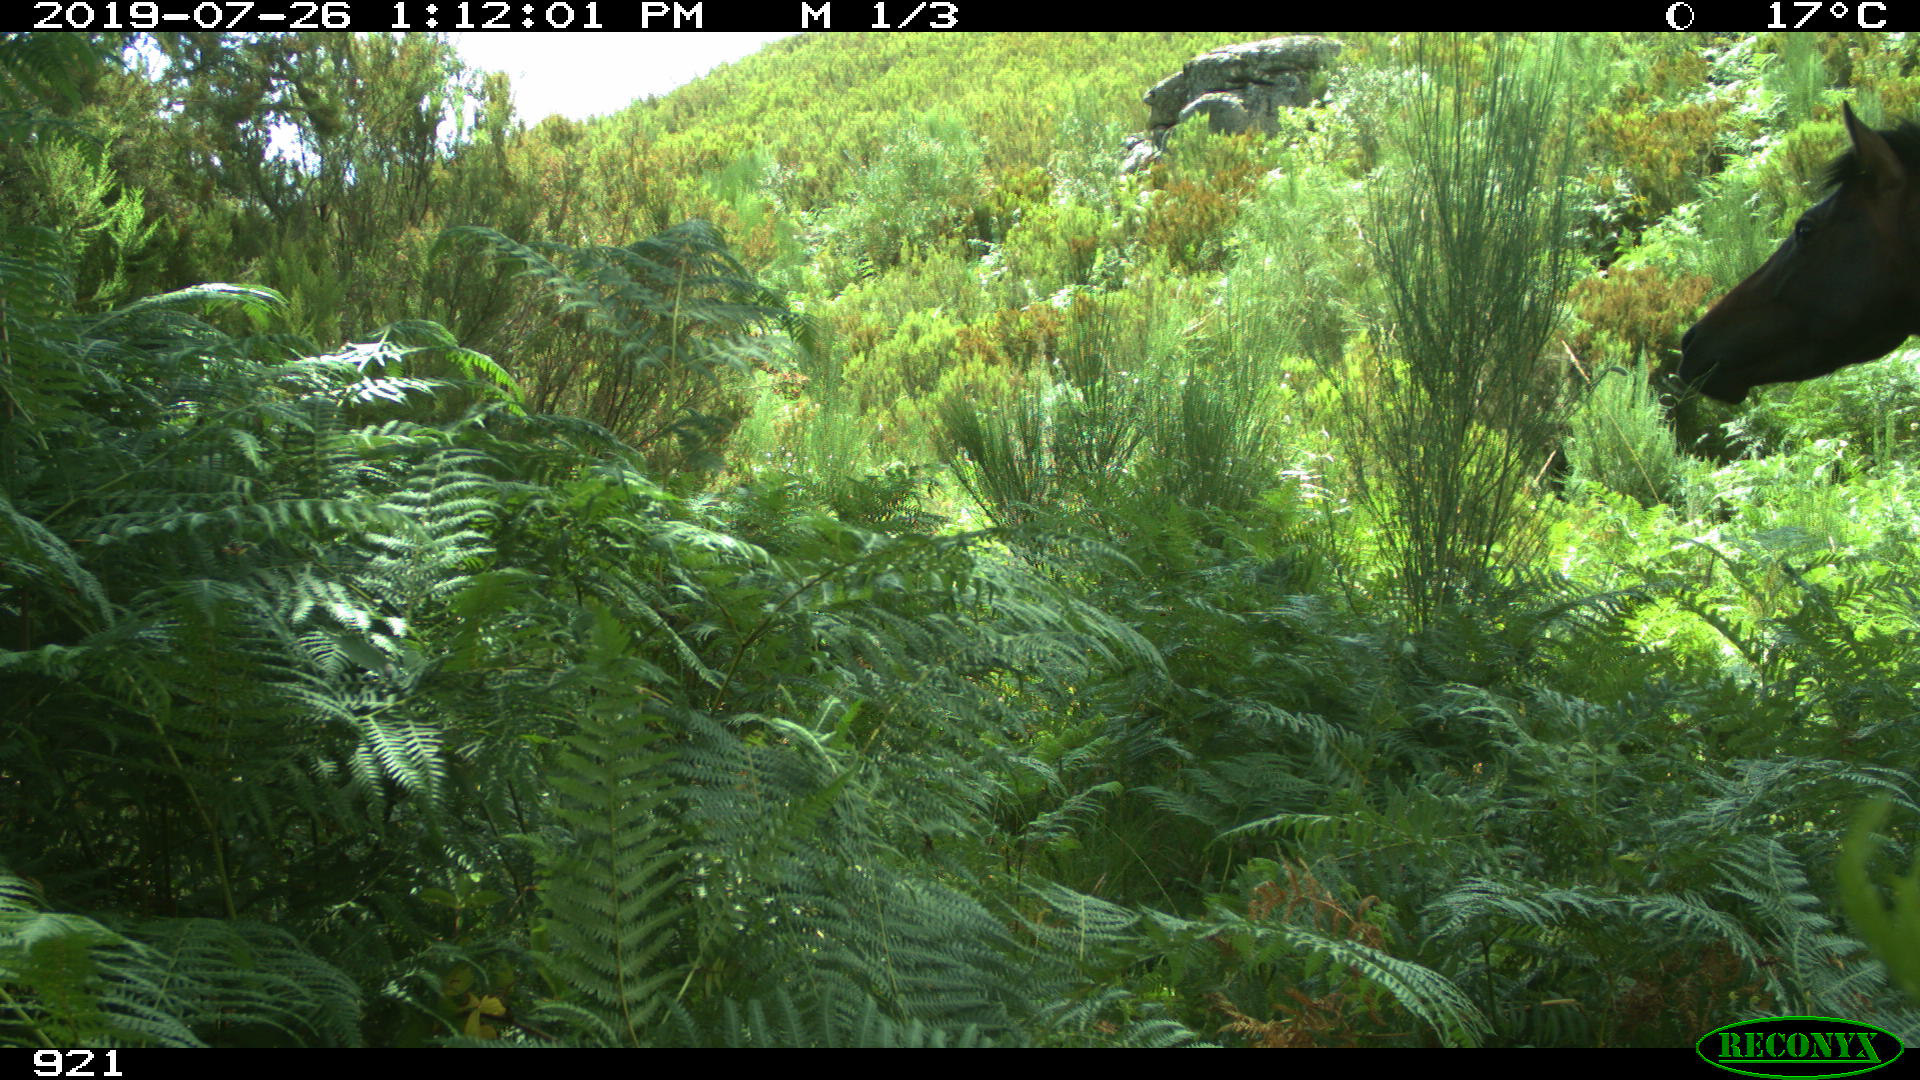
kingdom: Animalia
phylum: Chordata
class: Mammalia
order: Perissodactyla
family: Equidae
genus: Equus
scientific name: Equus caballus
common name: Horse
